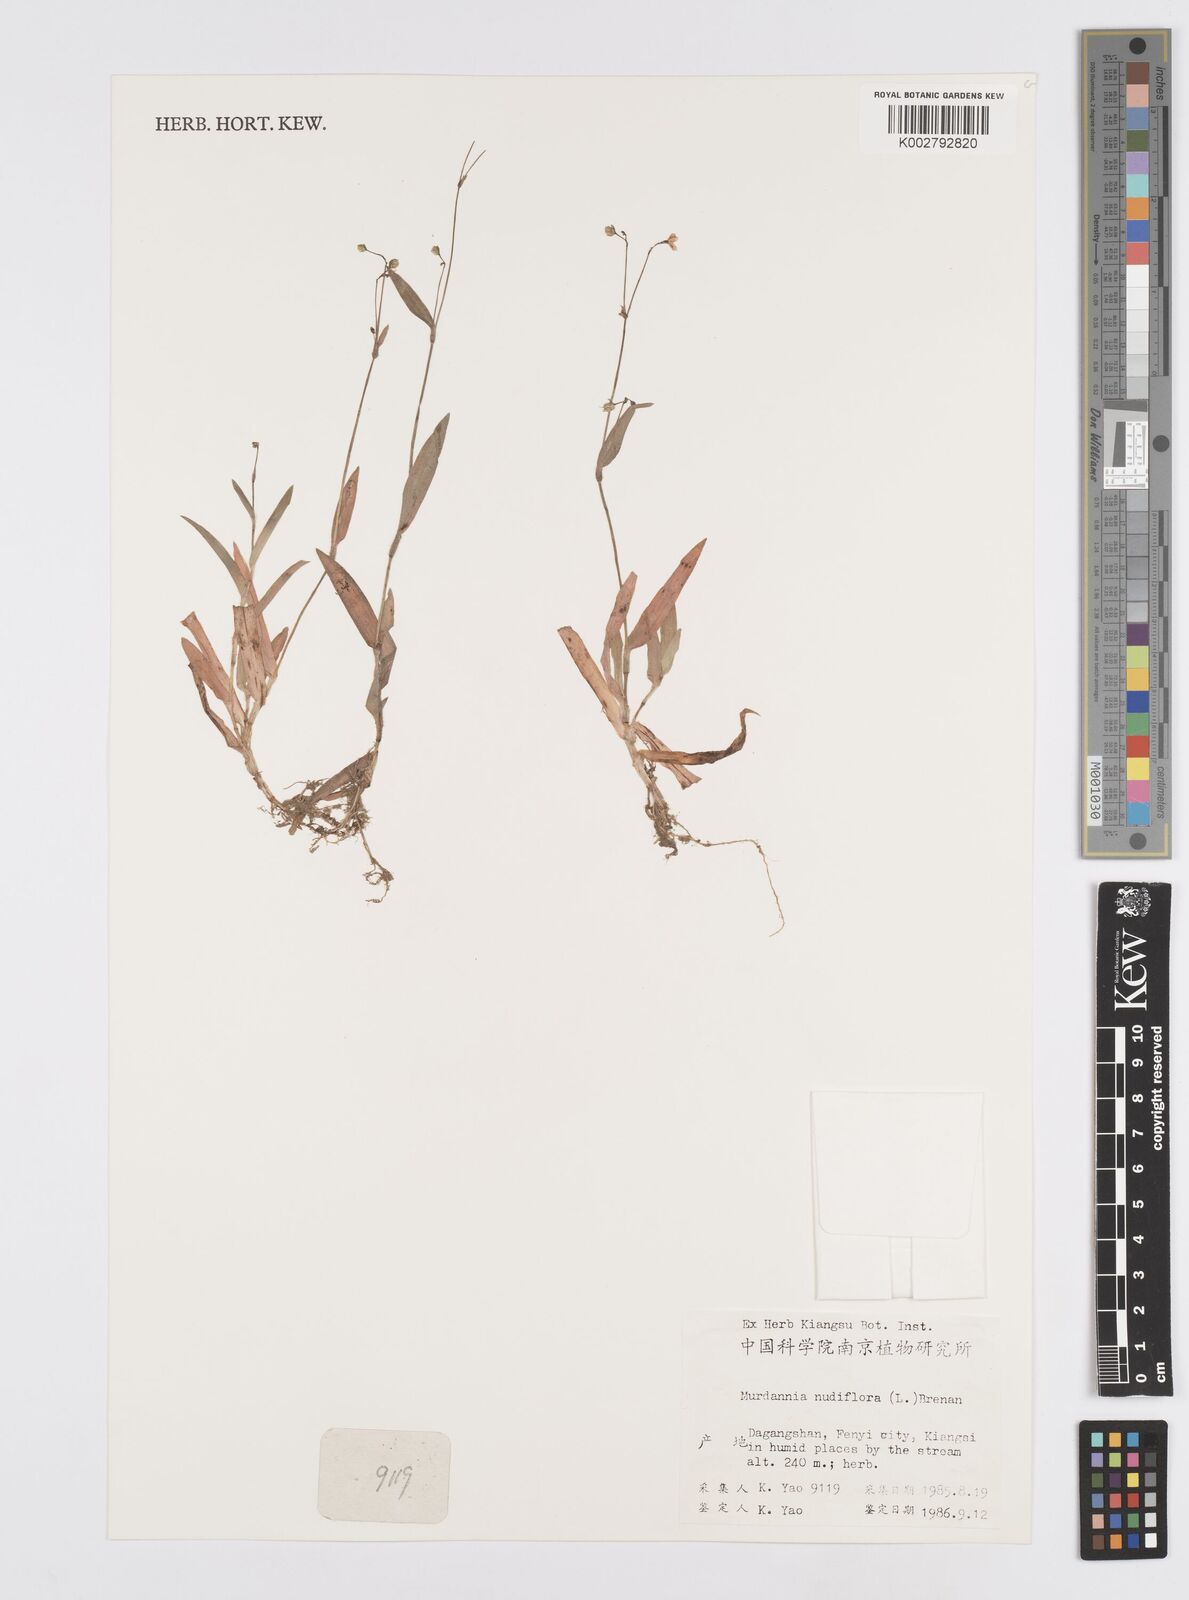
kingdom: Plantae
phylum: Tracheophyta
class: Liliopsida
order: Commelinales
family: Commelinaceae
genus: Murdannia
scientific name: Murdannia nudiflora
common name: Nakedstem dewflower
